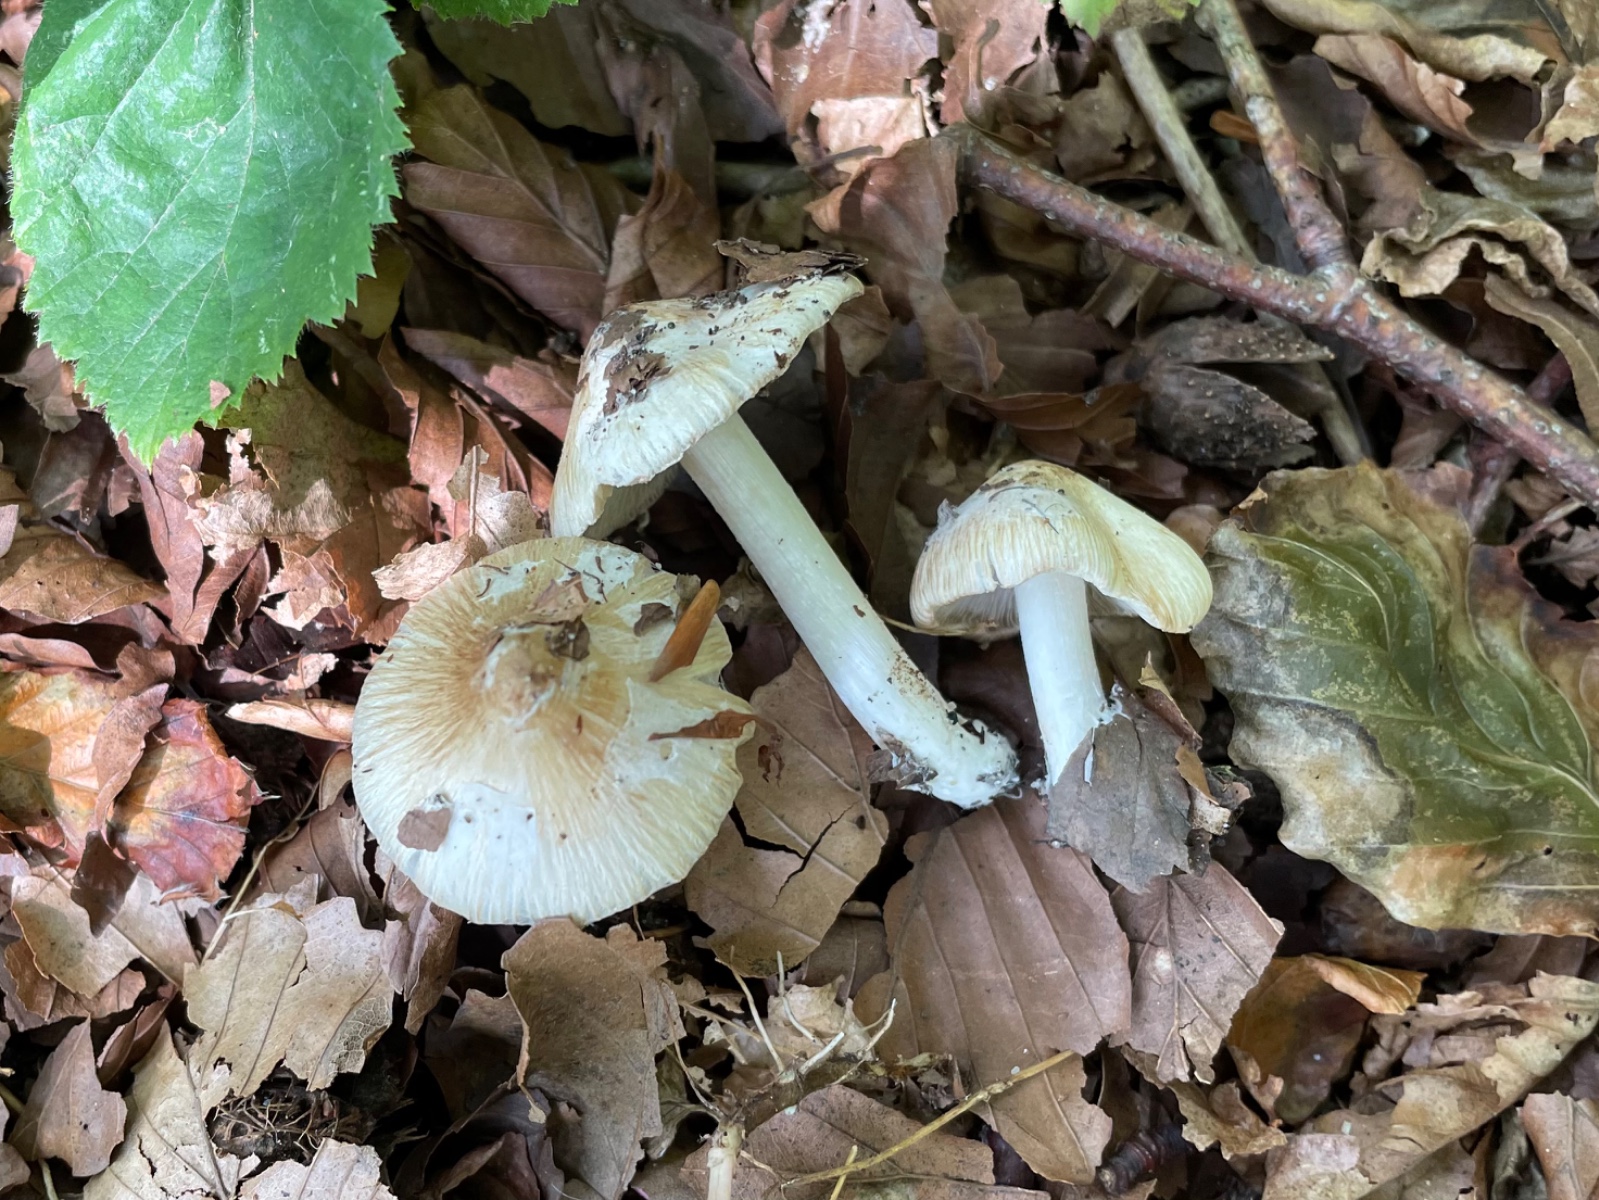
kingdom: Fungi
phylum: Basidiomycota
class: Agaricomycetes
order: Agaricales
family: Inocybaceae
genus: Pseudosperma
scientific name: Pseudosperma
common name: trævlhat
